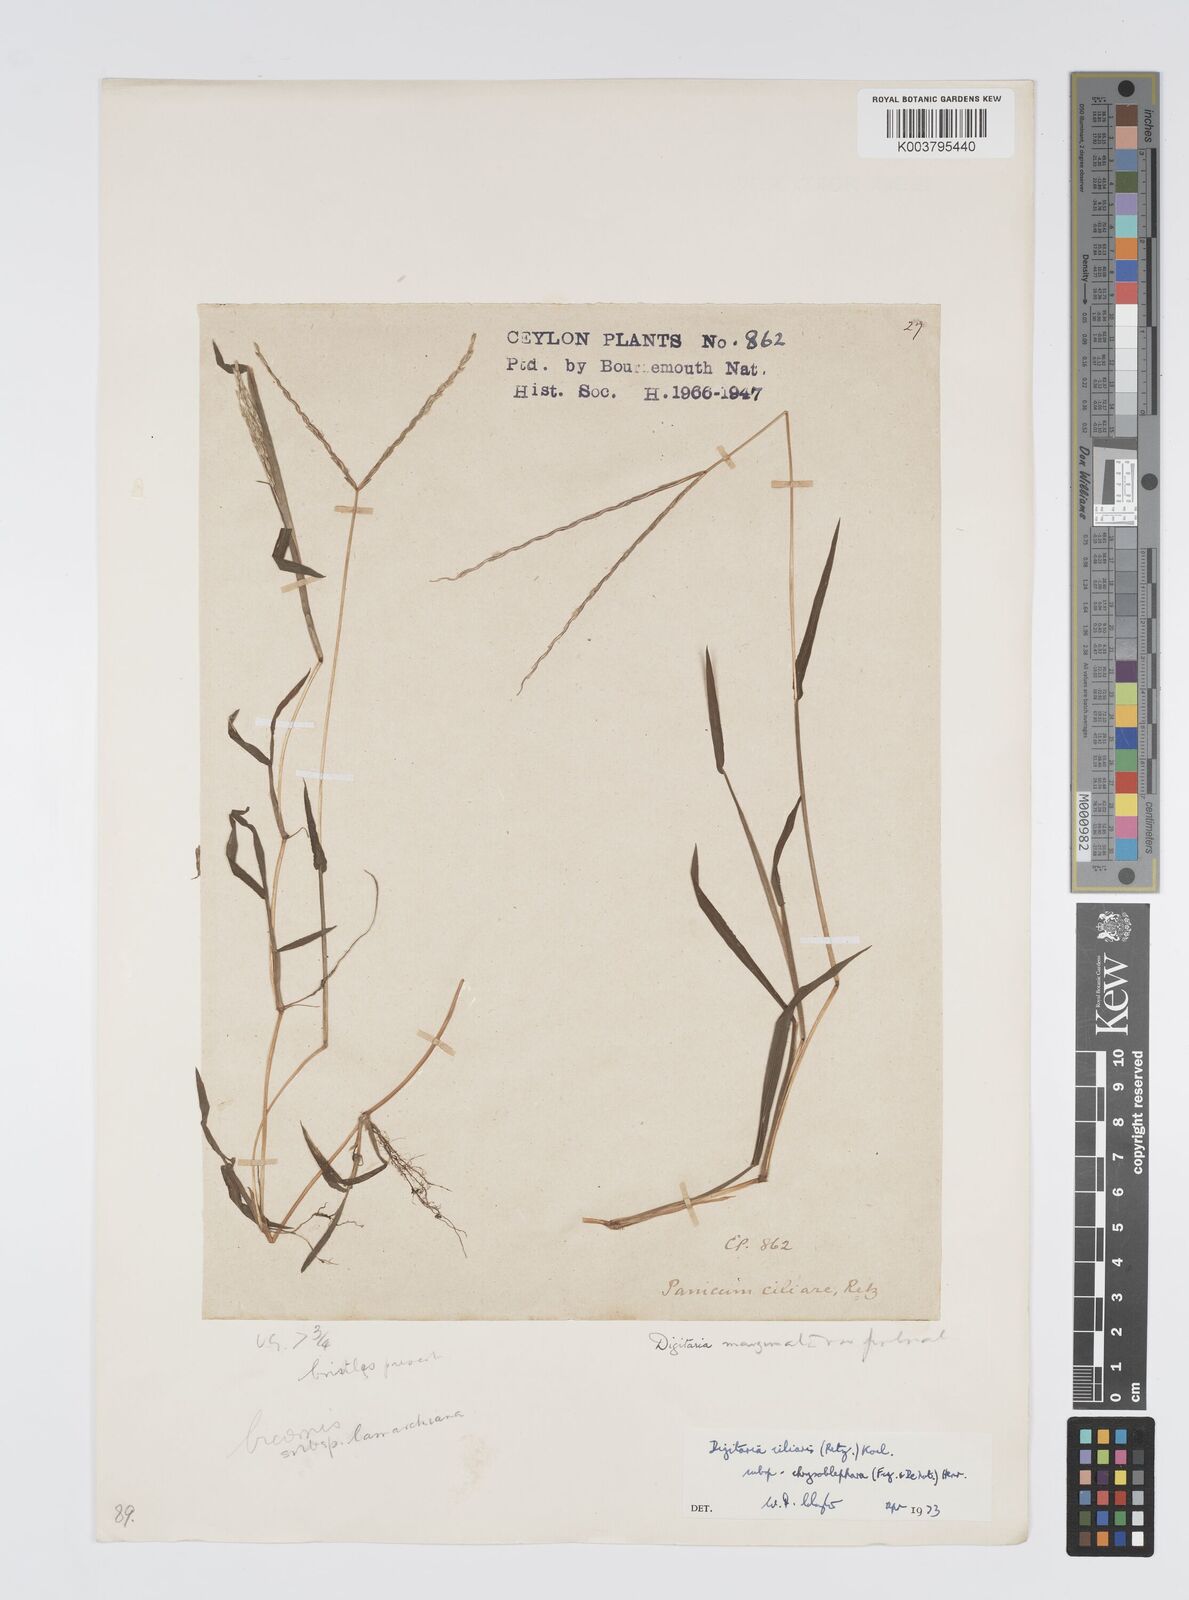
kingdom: Plantae
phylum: Tracheophyta
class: Liliopsida
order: Poales
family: Poaceae
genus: Digitaria
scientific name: Digitaria bicornis
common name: Asian crabgrass
